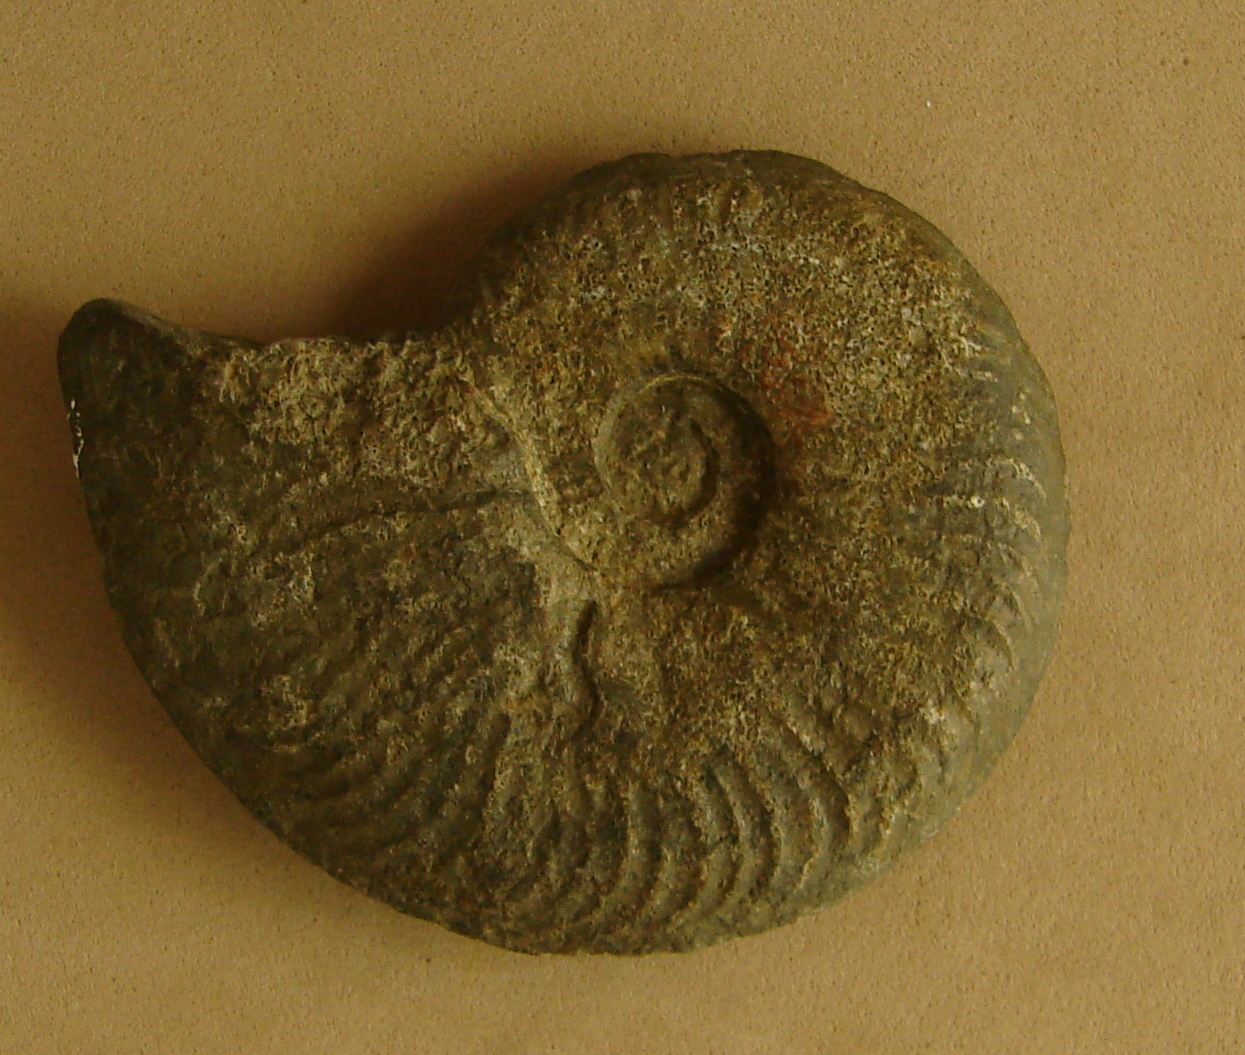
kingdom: Animalia
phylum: Mollusca
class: Cephalopoda
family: Hildoceratidae
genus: Pleydellia
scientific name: Pleydellia
